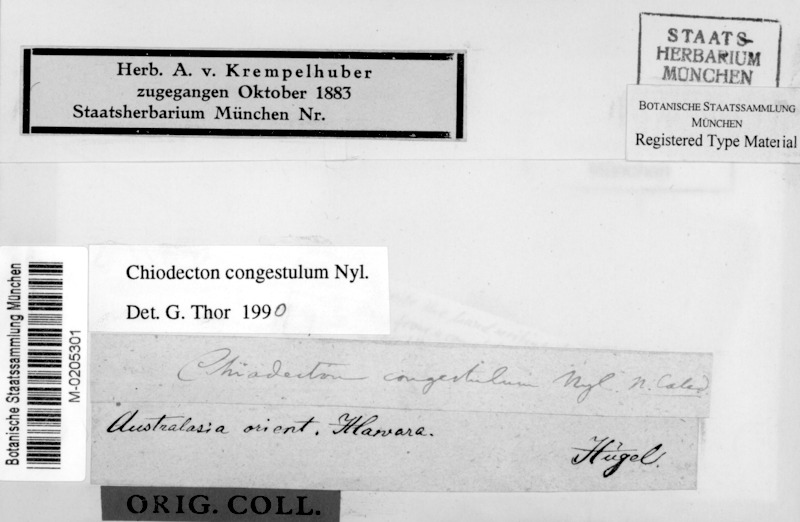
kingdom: Fungi
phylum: Ascomycota
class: Arthoniomycetes
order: Arthoniales
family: Roccellaceae
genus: Chiodecton
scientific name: Chiodecton congestulum
